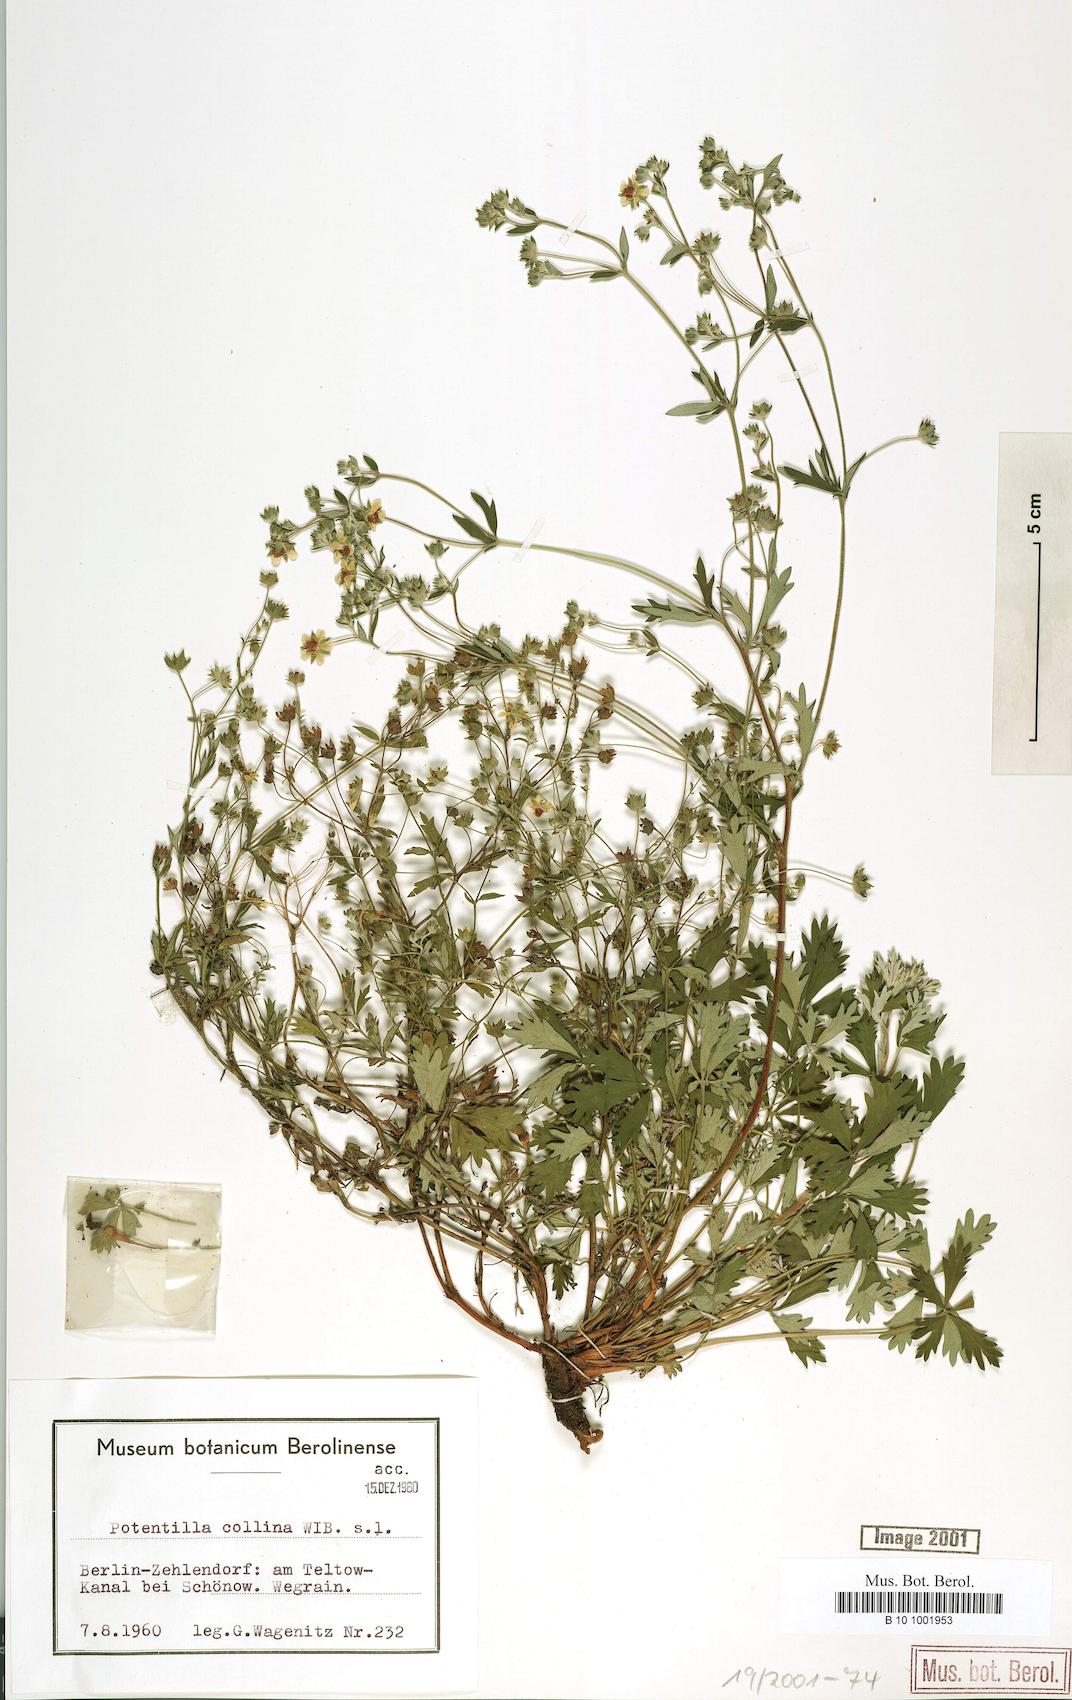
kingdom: Plantae
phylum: Tracheophyta
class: Magnoliopsida
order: Rosales
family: Rosaceae
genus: Potentilla
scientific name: Potentilla collina
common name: Palmleaf cinquefoil
